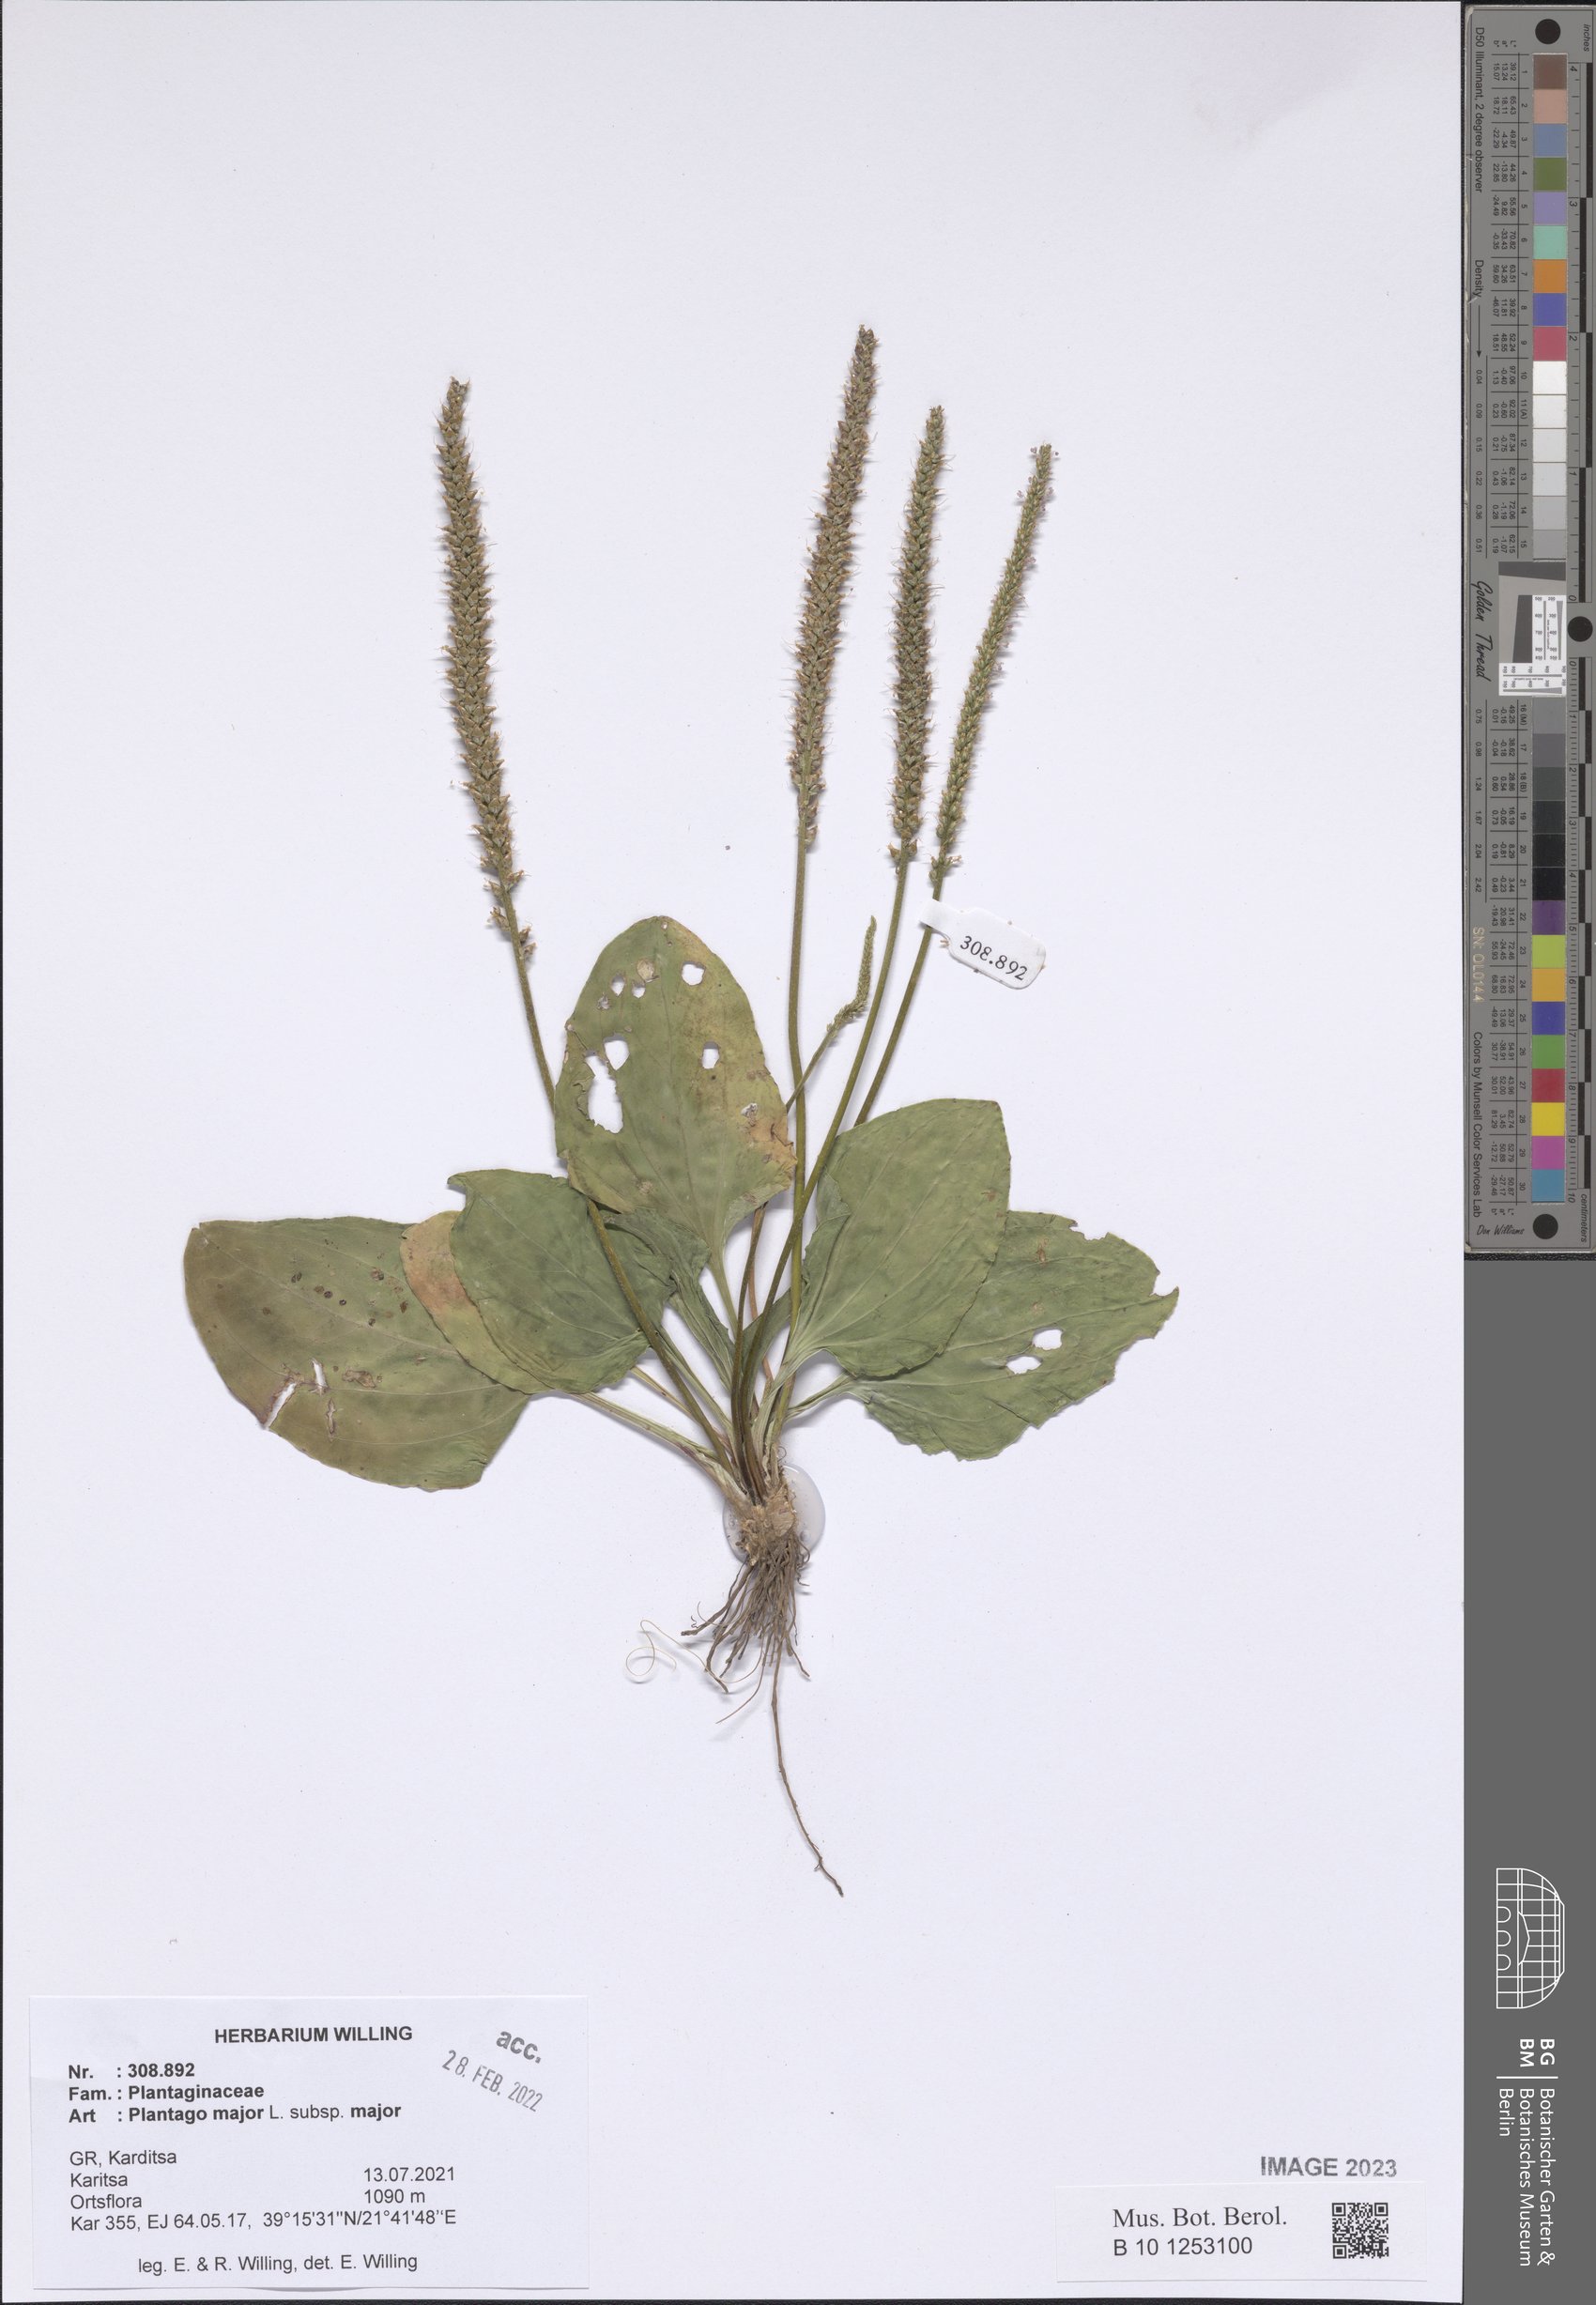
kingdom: Plantae
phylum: Tracheophyta
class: Magnoliopsida
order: Lamiales
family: Plantaginaceae
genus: Plantago
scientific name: Plantago major
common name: Common plantain
